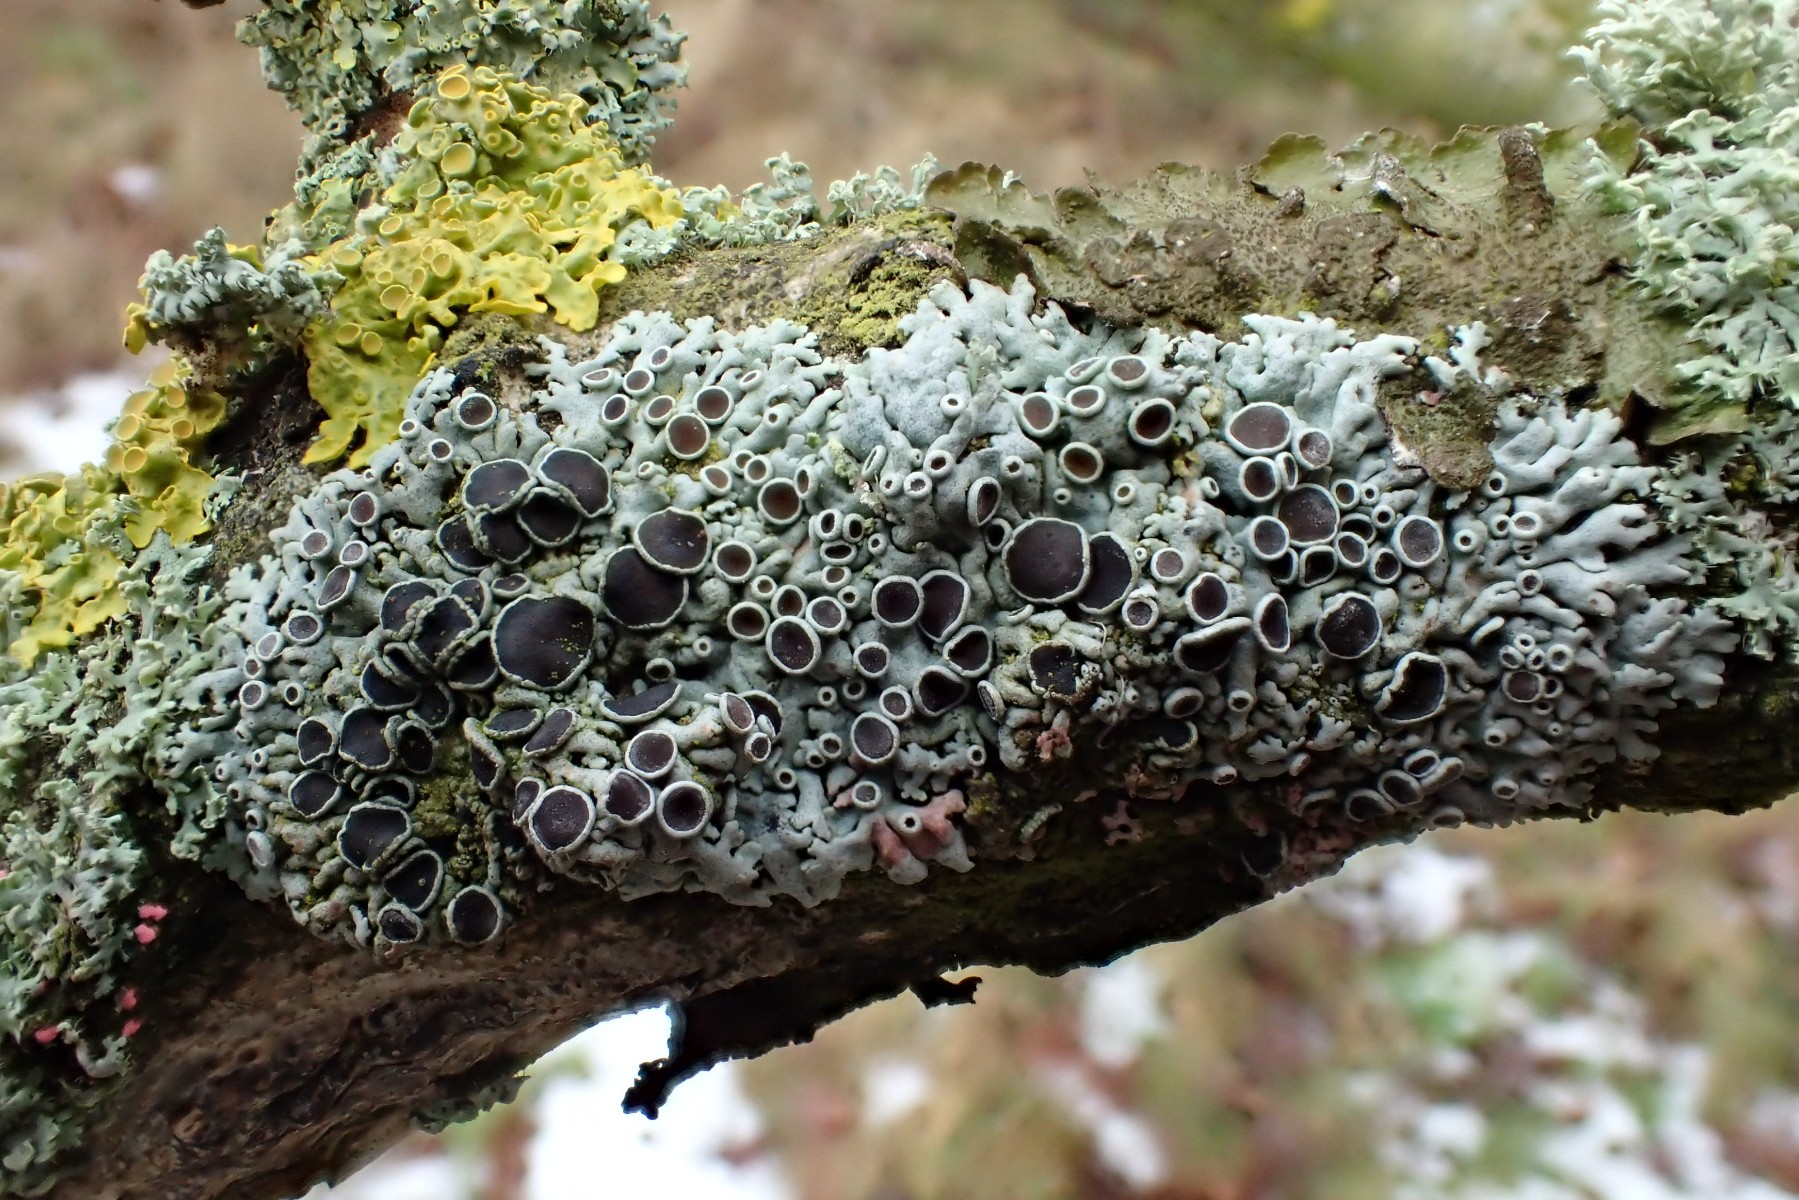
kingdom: Fungi
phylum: Ascomycota
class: Lecanoromycetes
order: Caliciales
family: Physciaceae
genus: Physcia
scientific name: Physcia stellaris
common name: stjerneformet rosetlav
